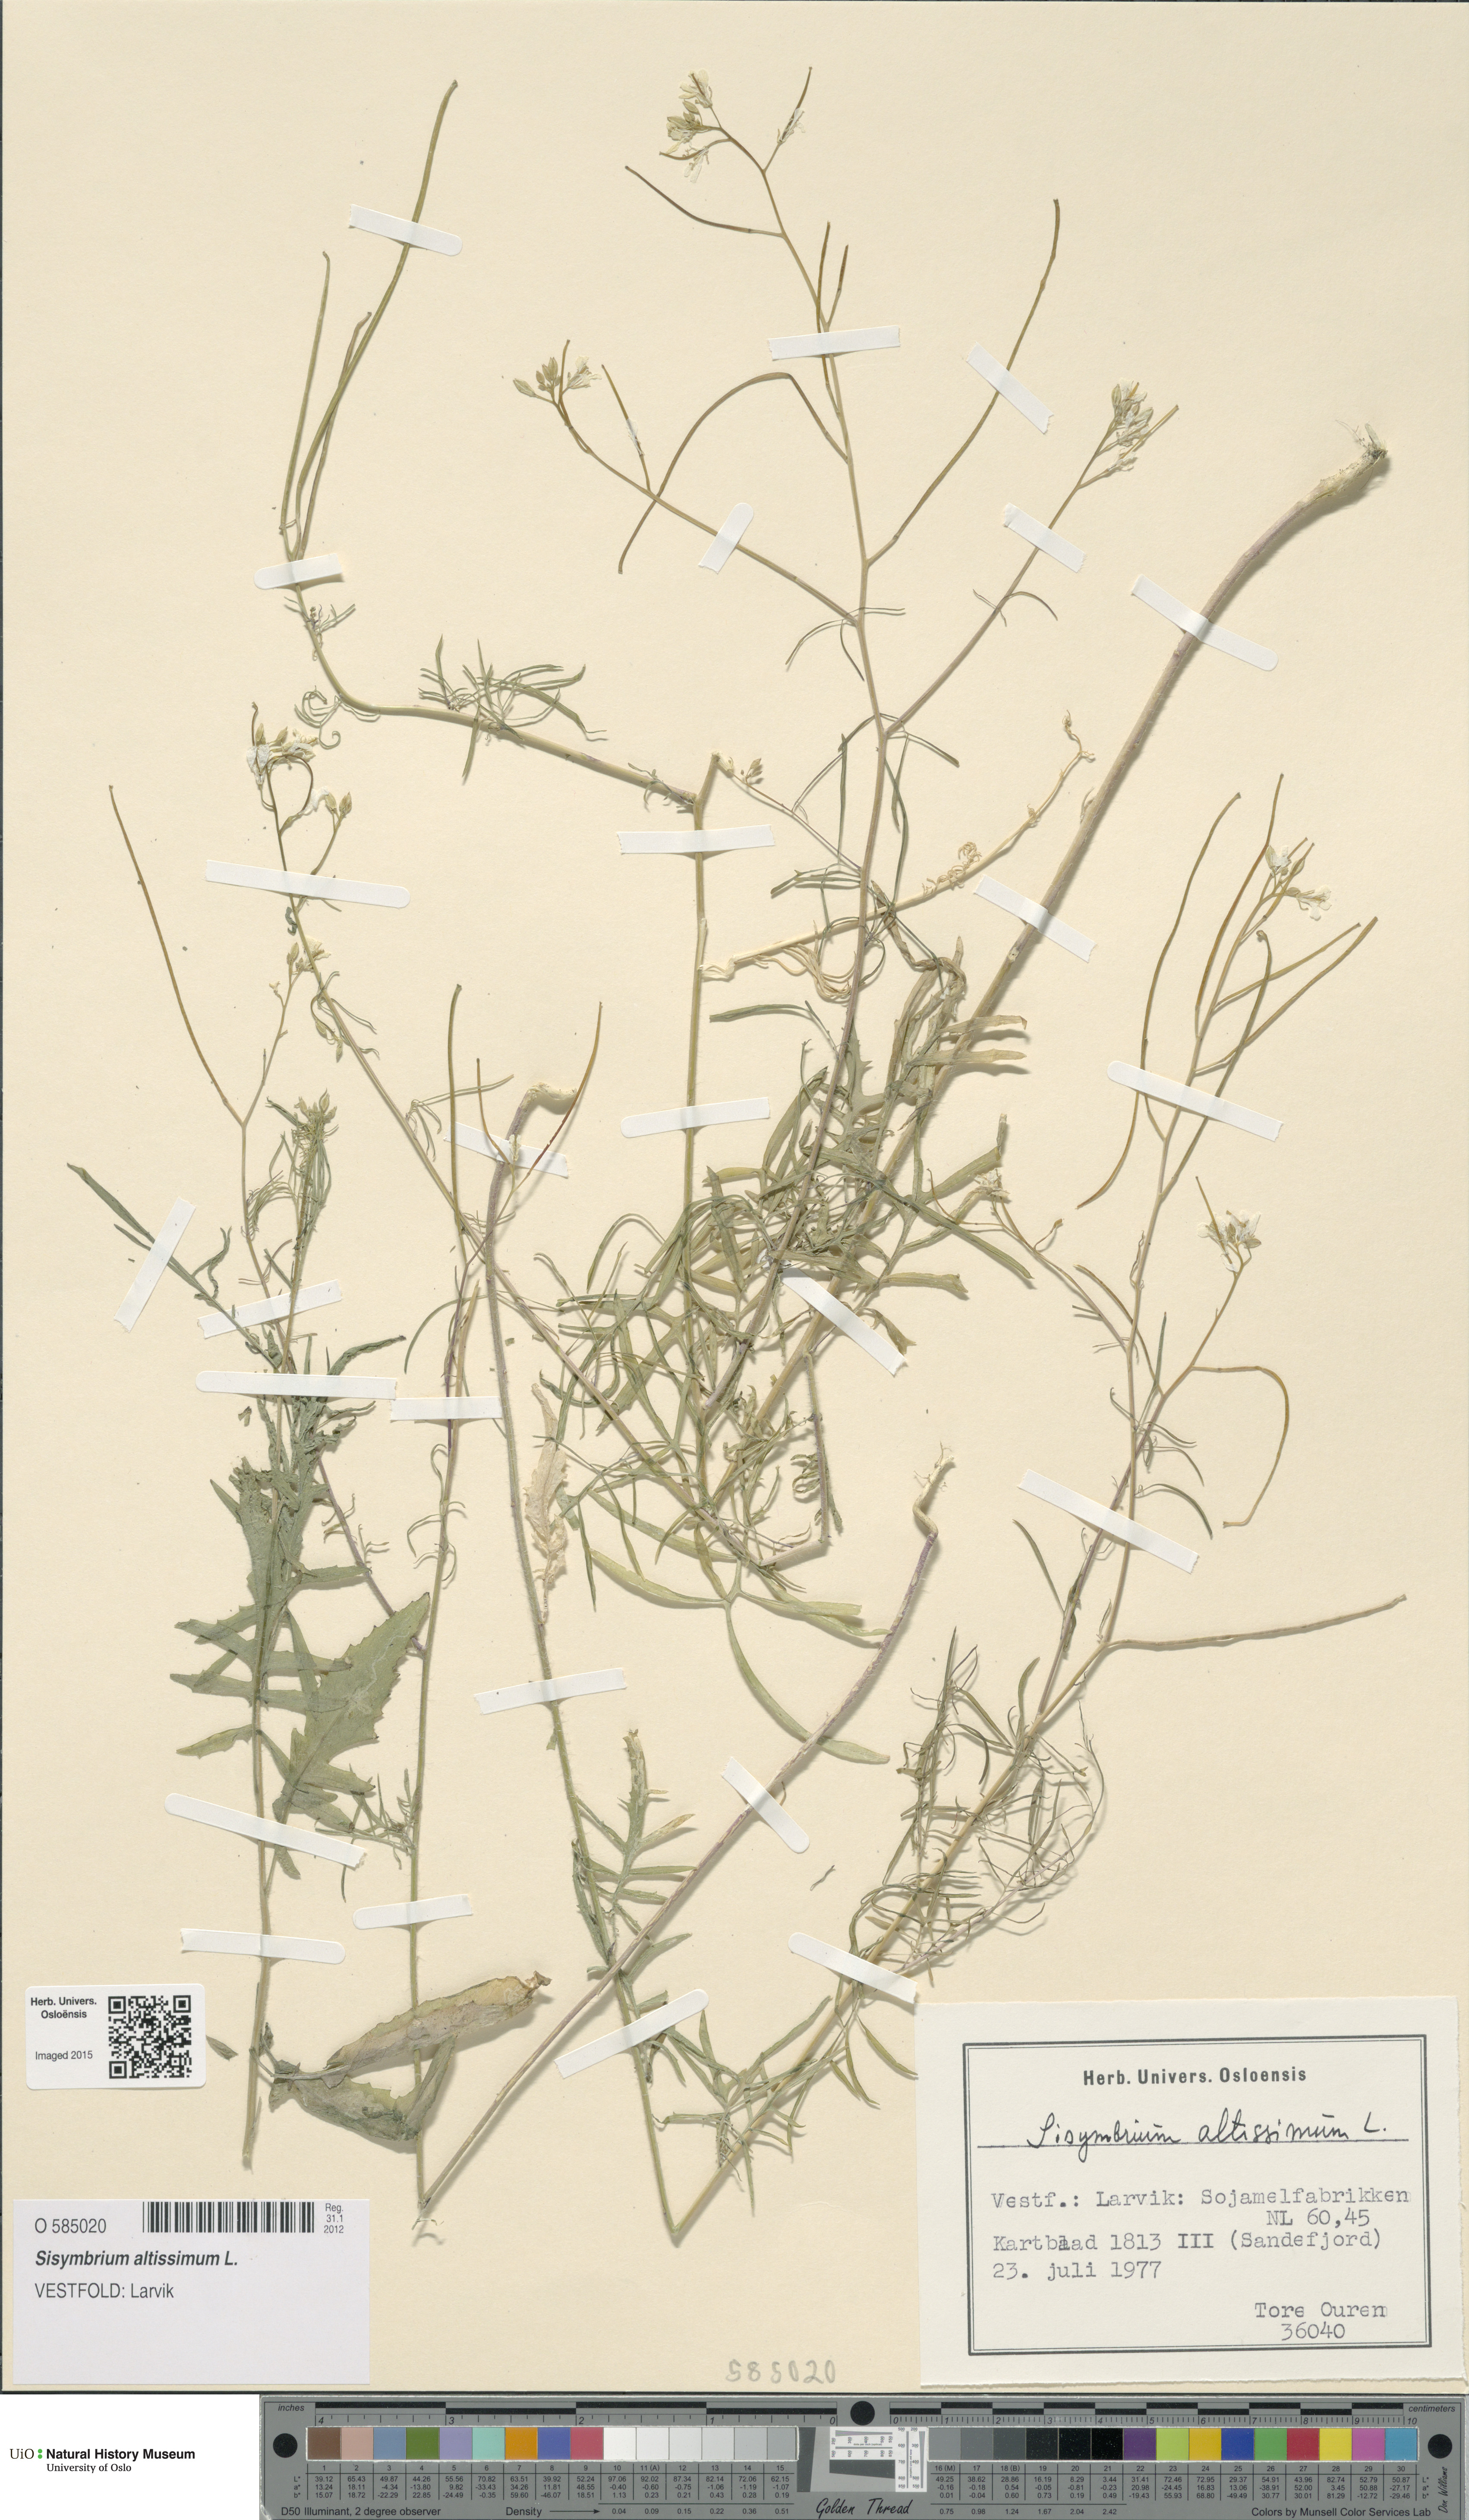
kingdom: Plantae
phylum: Tracheophyta
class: Magnoliopsida
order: Brassicales
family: Brassicaceae
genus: Sisymbrium
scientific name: Sisymbrium altissimum
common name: Tall rocket
